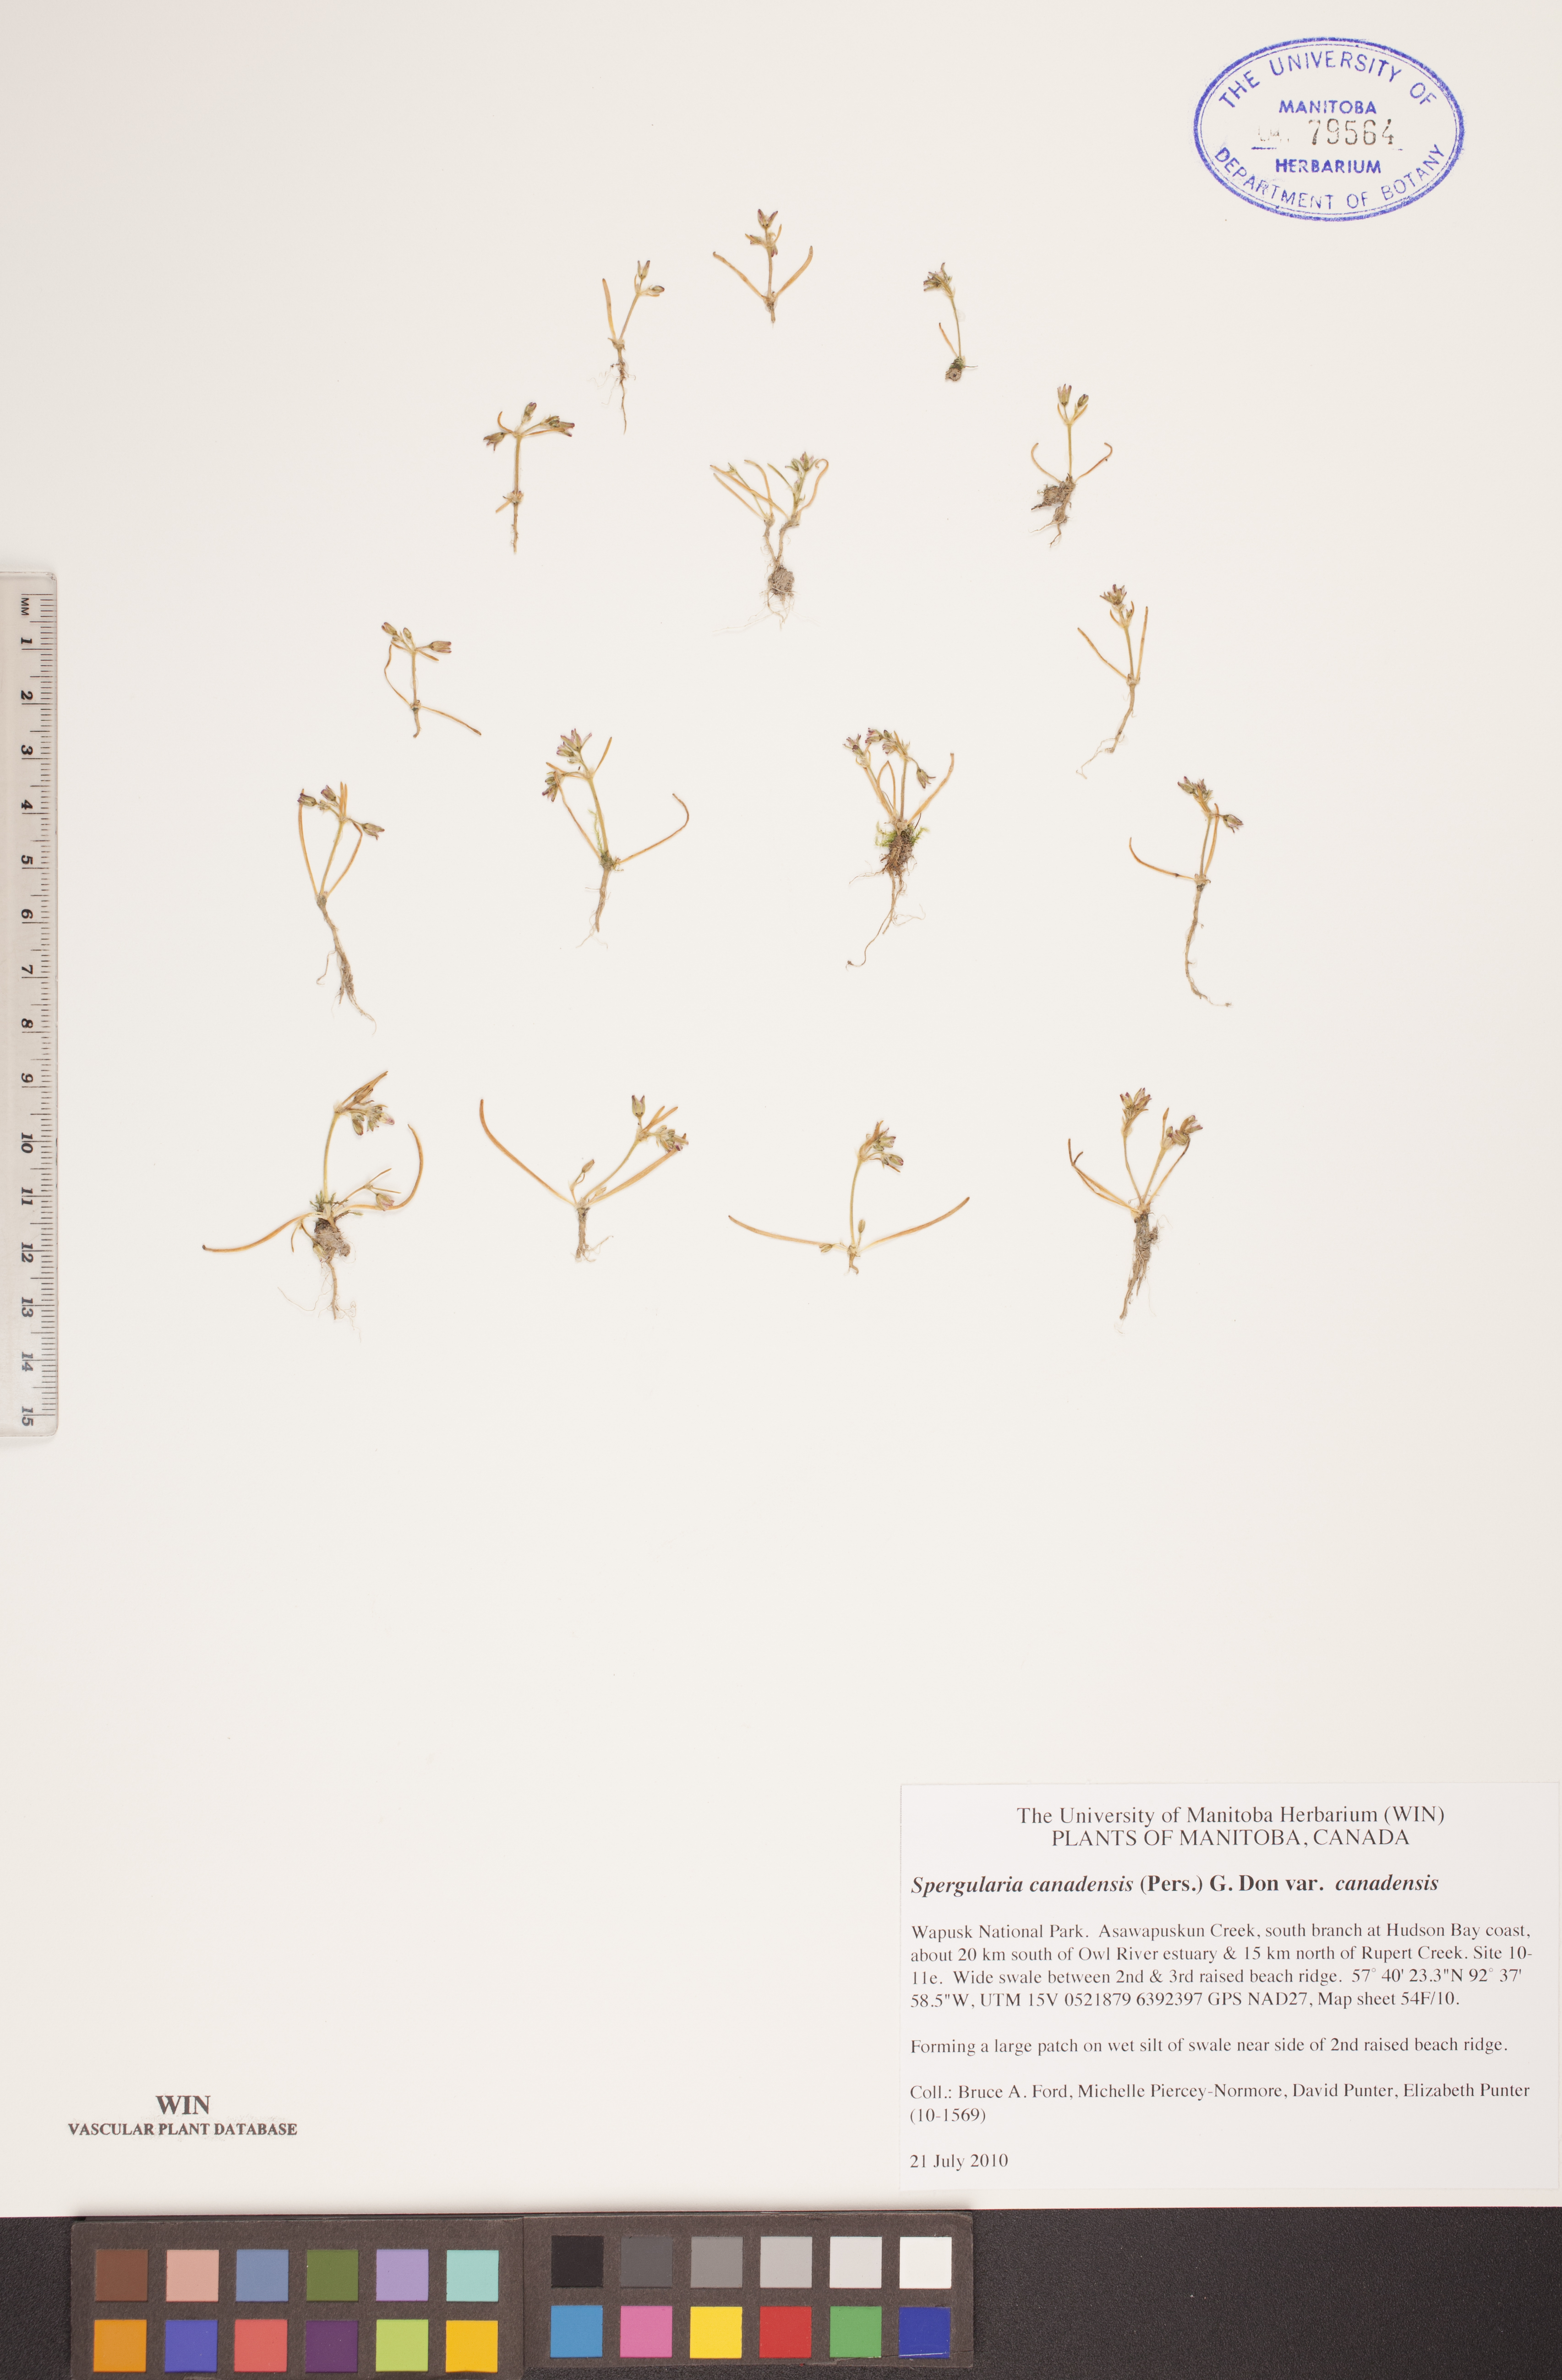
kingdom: Plantae
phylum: Tracheophyta
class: Magnoliopsida
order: Caryophyllales
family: Caryophyllaceae
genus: Spergularia
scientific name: Spergularia canadensis
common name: Canada sand-spurrey
